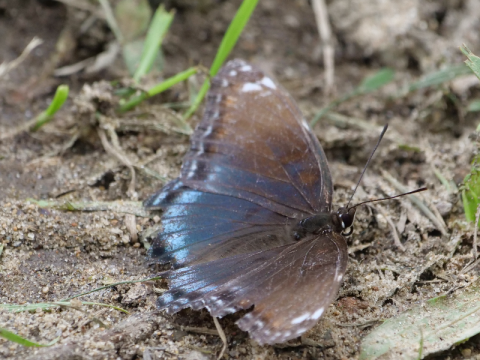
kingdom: Animalia
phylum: Arthropoda
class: Insecta
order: Lepidoptera
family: Nymphalidae
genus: Limenitis
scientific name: Limenitis arthemis
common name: Red-spotted Admiral
